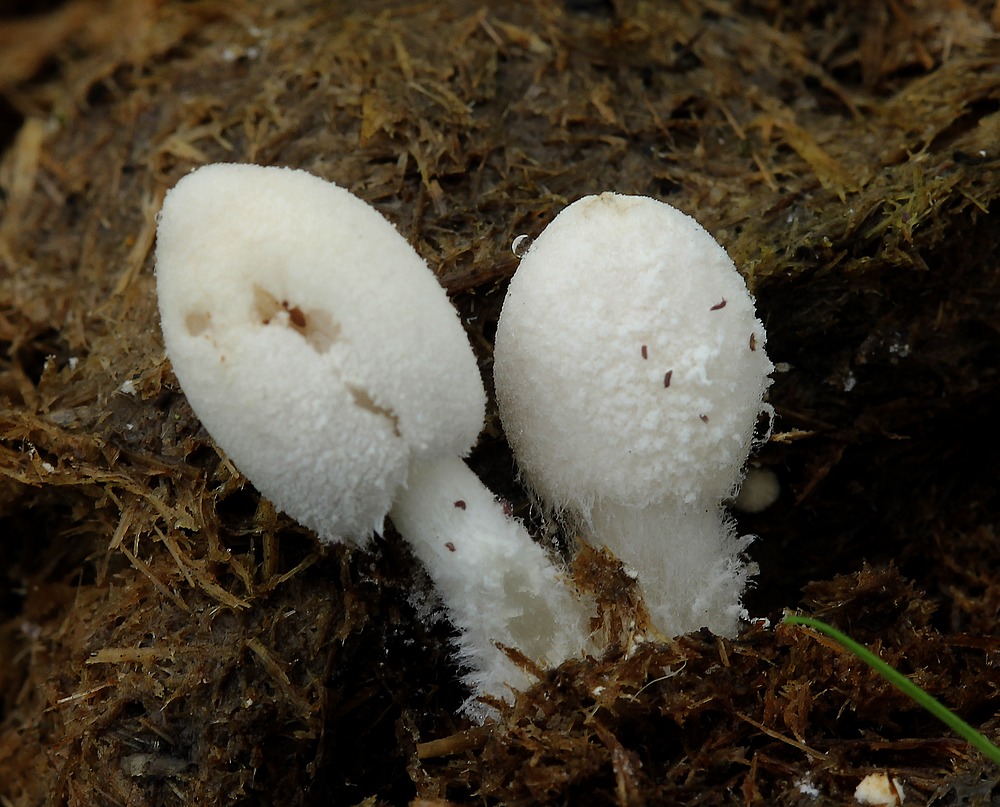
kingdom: Fungi
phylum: Basidiomycota
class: Agaricomycetes
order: Agaricales
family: Psathyrellaceae
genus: Coprinopsis
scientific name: Coprinopsis nivea
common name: snehvid blækhat
